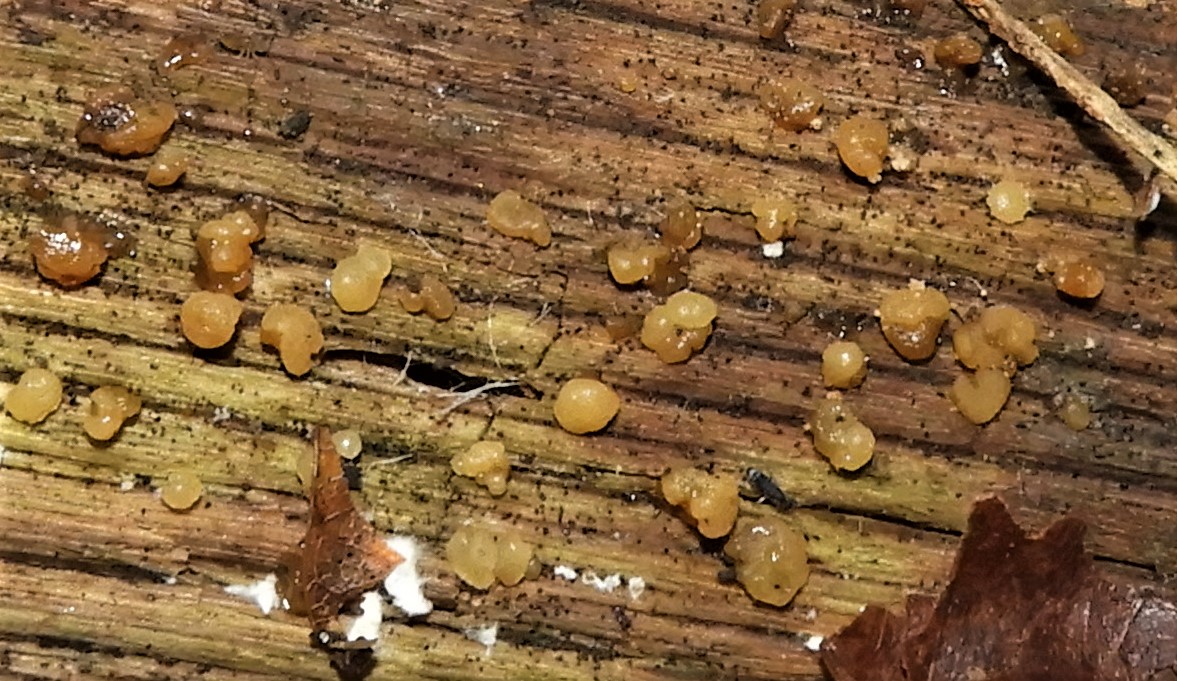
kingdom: Fungi
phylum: Basidiomycota
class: Dacrymycetes
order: Dacrymycetales
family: Dacrymycetaceae
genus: Dacrymyces
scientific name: Dacrymyces
